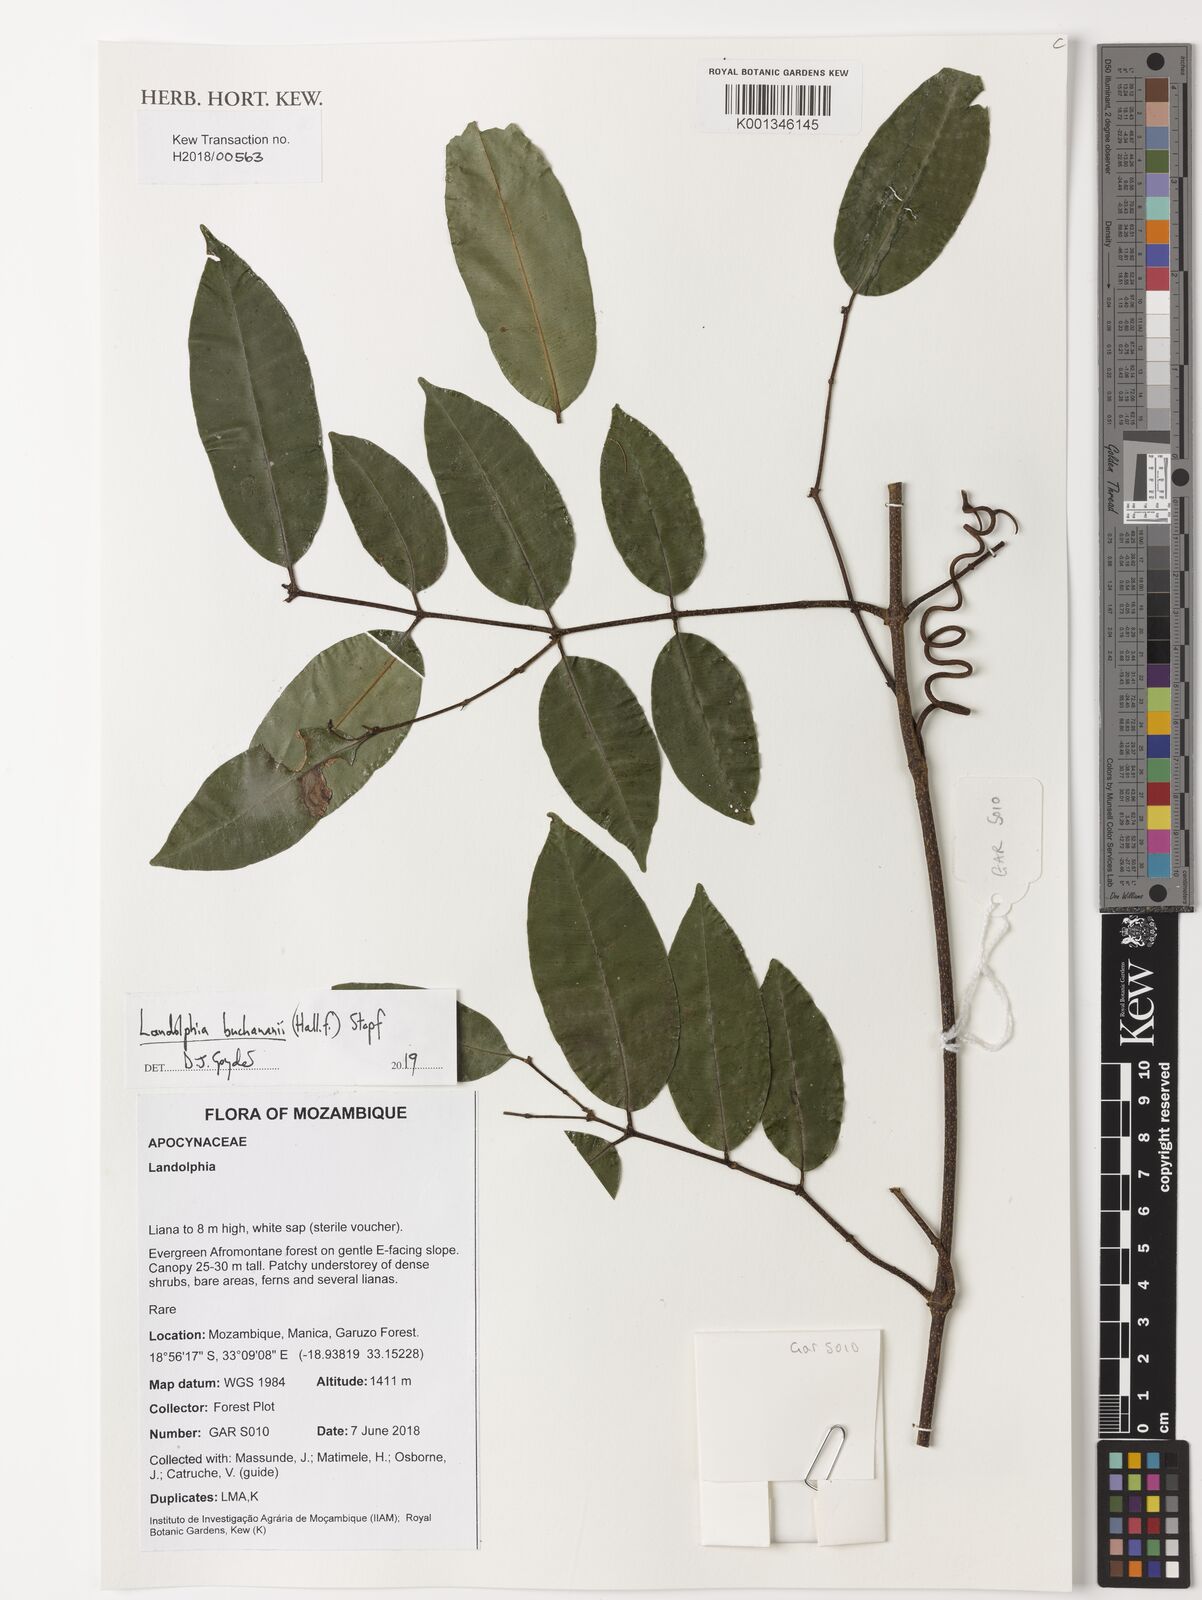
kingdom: Plantae
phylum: Tracheophyta
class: Magnoliopsida
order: Gentianales
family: Apocynaceae
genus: Landolphia
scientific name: Landolphia buchananii
